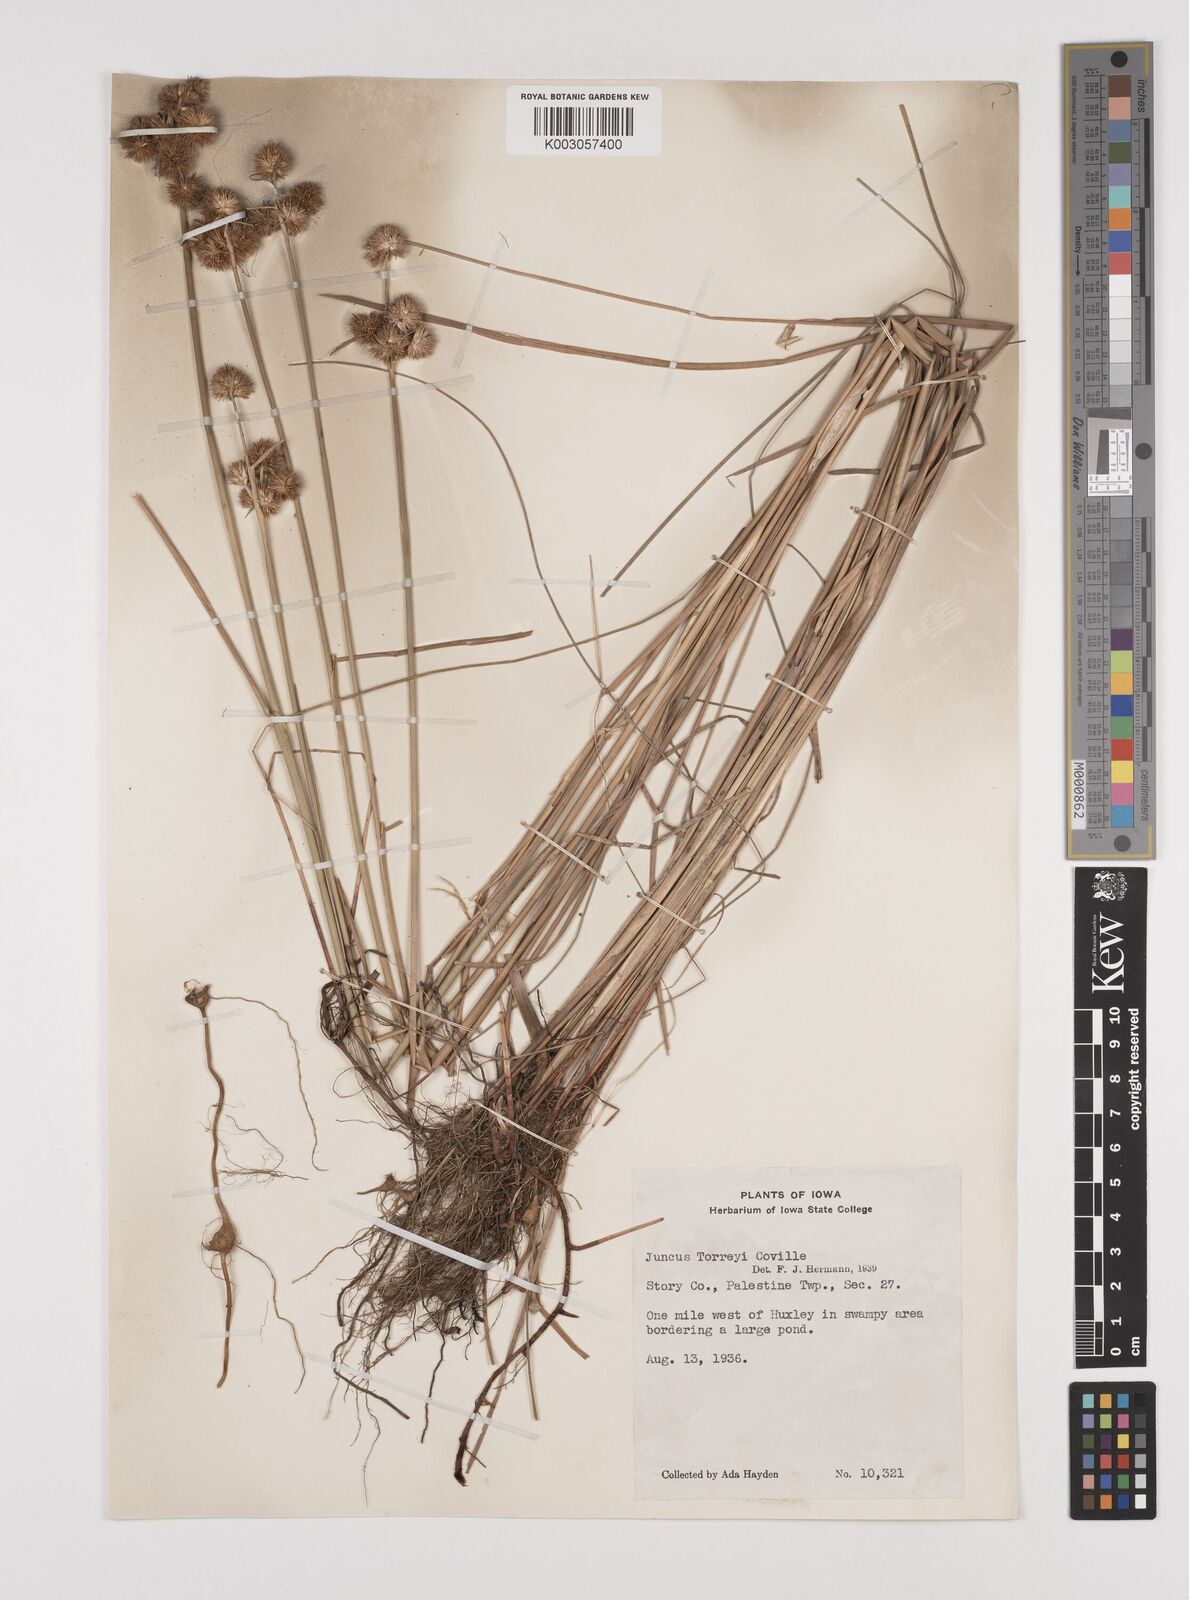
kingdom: Plantae
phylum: Tracheophyta
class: Liliopsida
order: Poales
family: Juncaceae
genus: Juncus
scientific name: Juncus torreyi
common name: Torrey's rush
